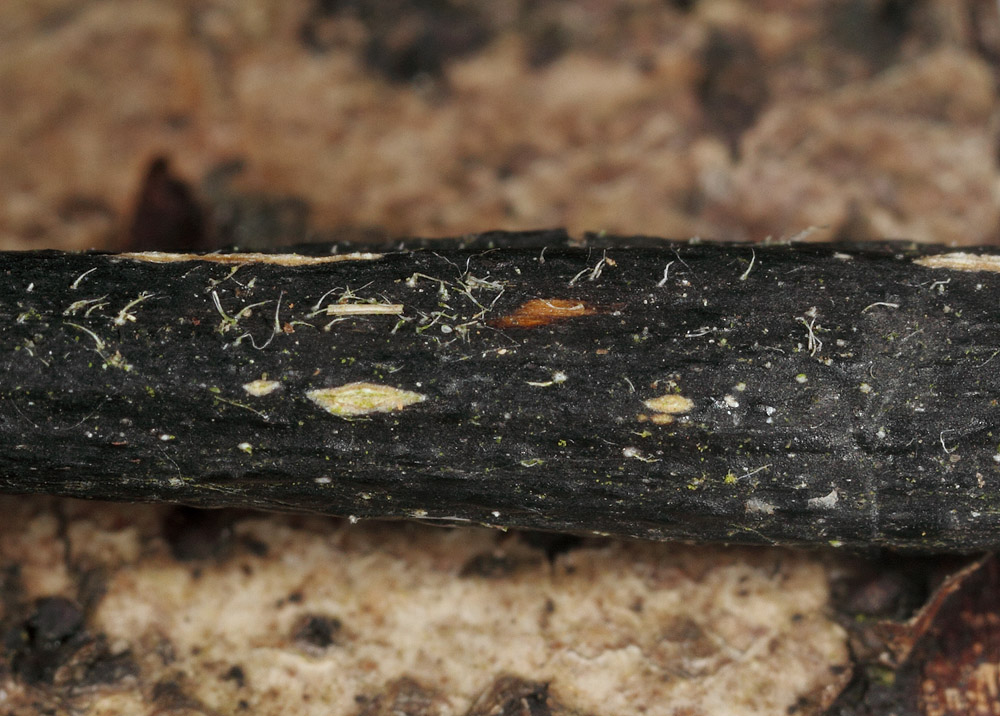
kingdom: Fungi
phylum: Ascomycota
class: Sordariomycetes
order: Diaporthales
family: Diaporthaceae
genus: Diaporthopsis
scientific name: Diaporthopsis urticae
